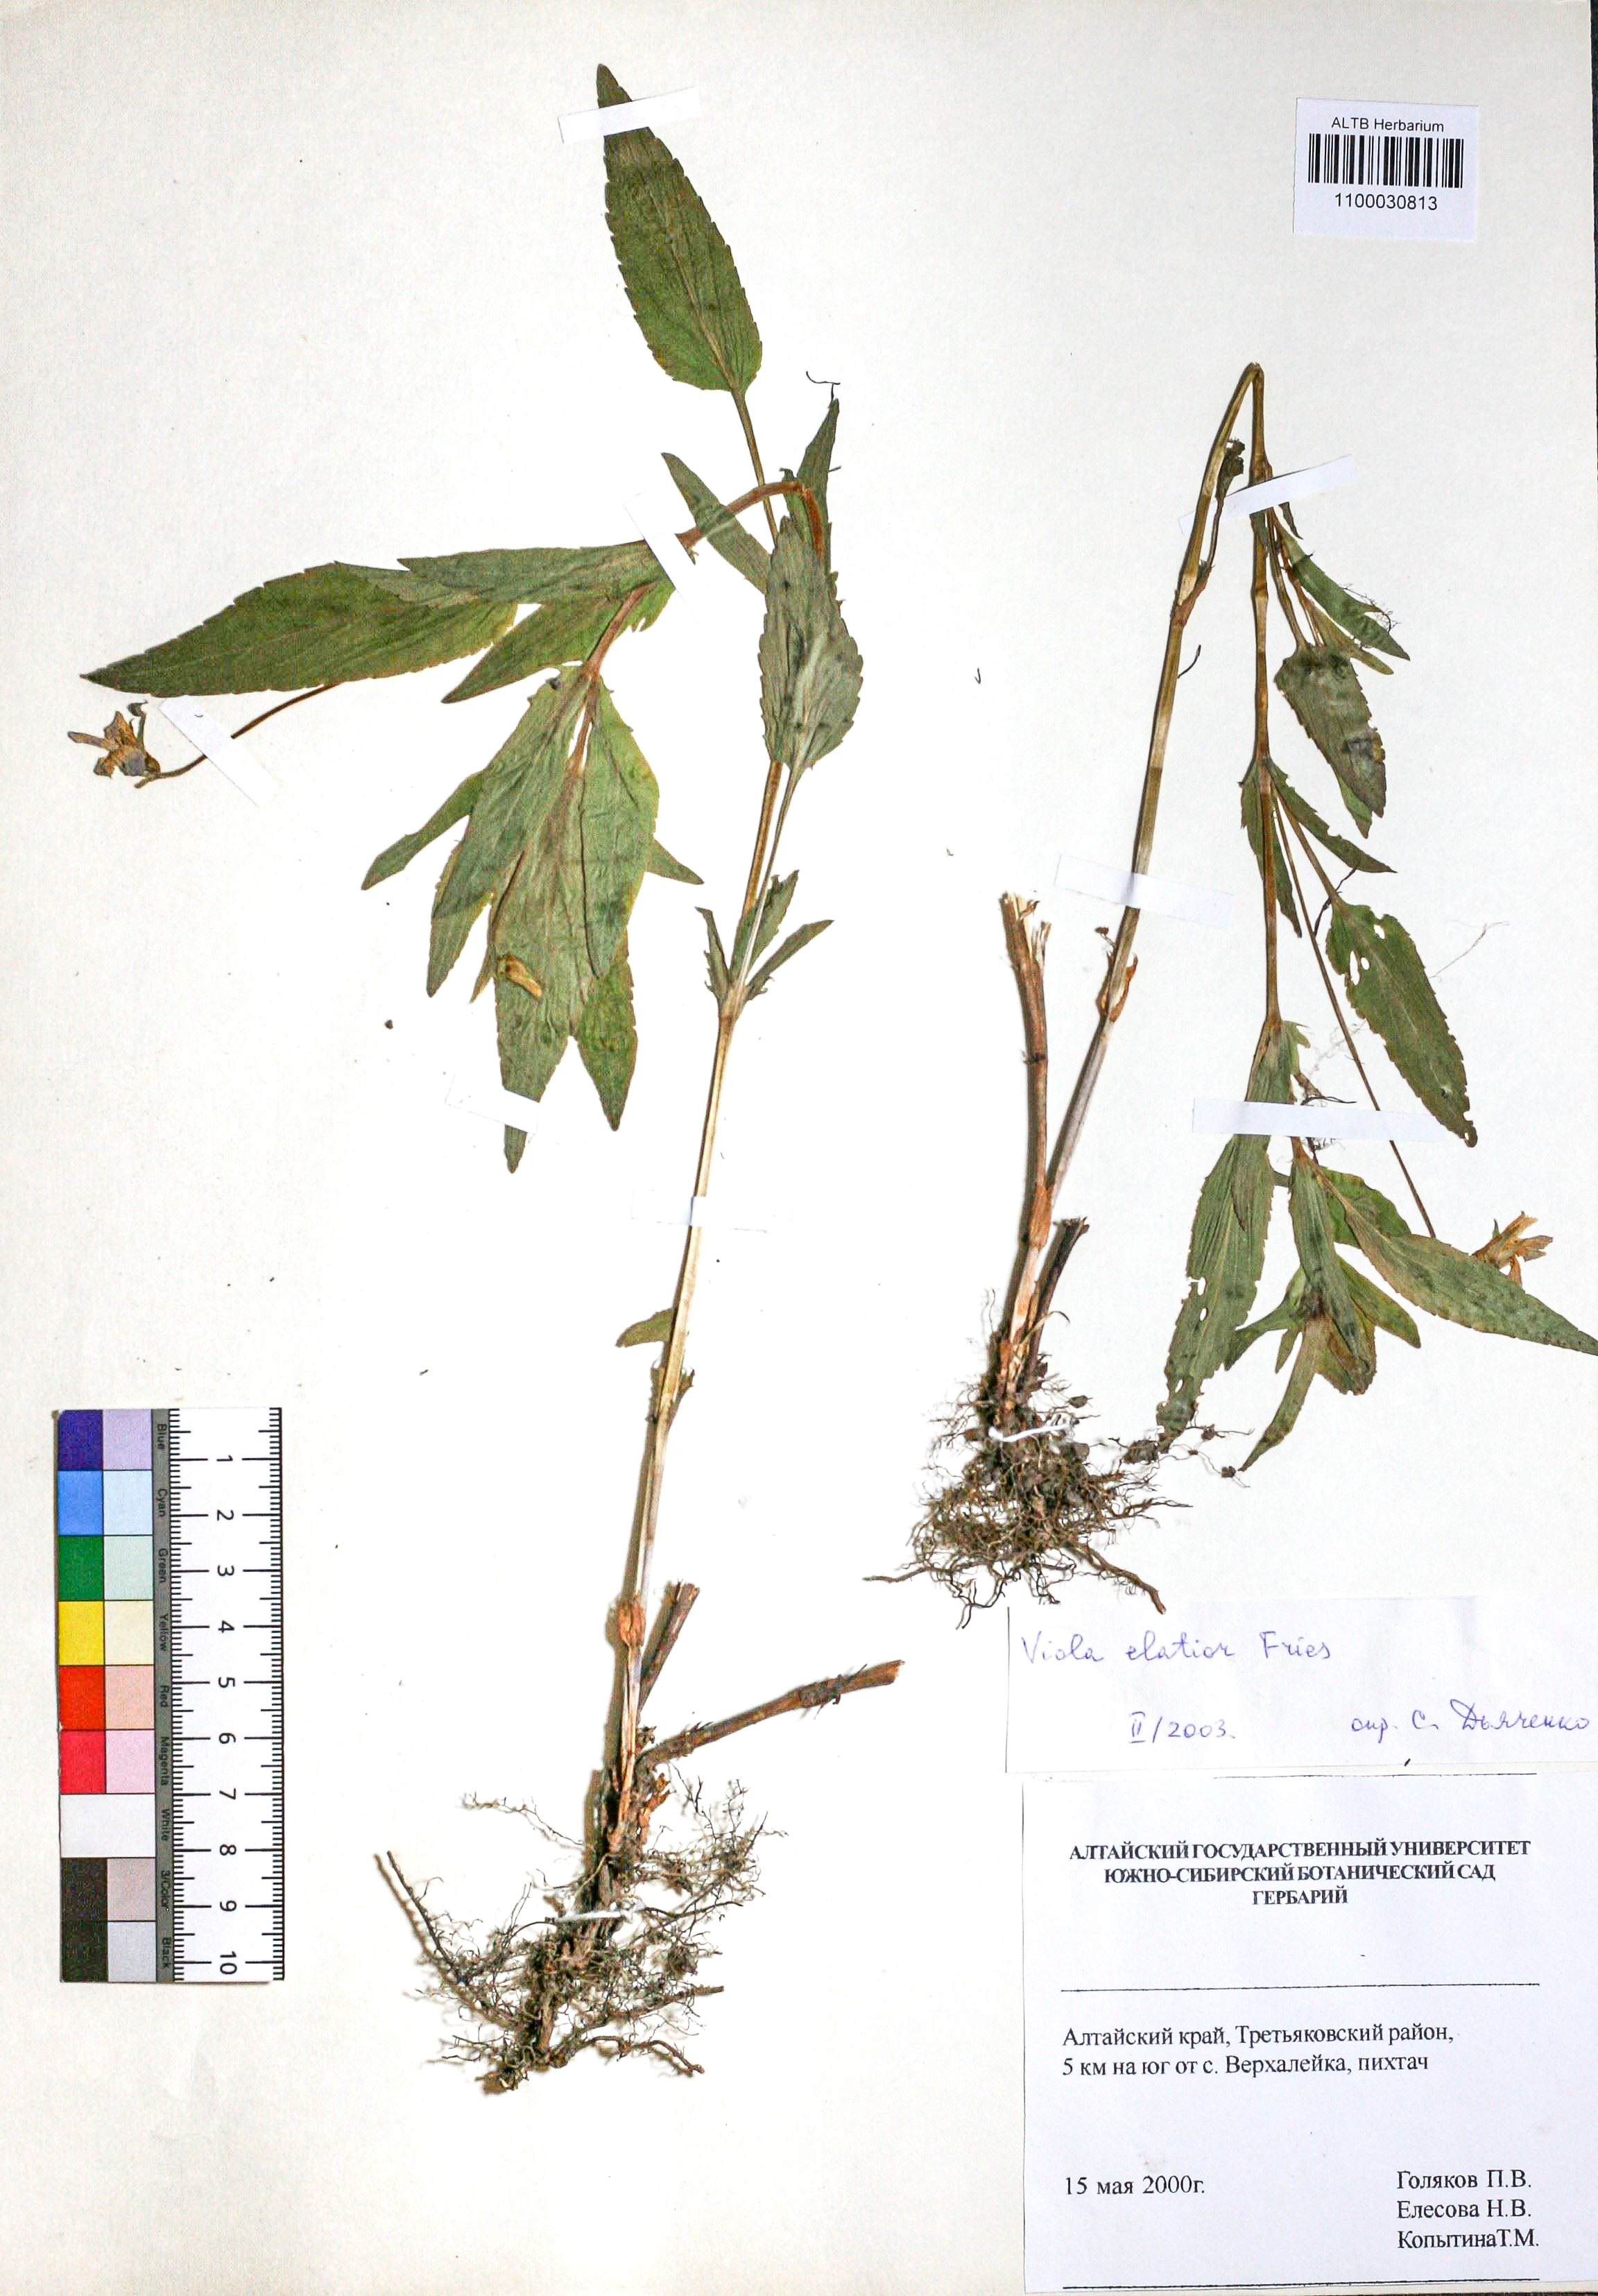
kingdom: Plantae
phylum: Tracheophyta
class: Magnoliopsida
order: Malpighiales
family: Violaceae
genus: Viola
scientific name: Viola elatior
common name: Tall violet
